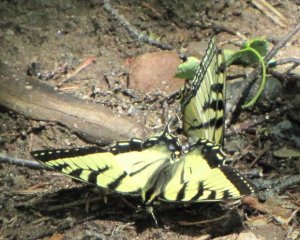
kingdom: Animalia
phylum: Arthropoda
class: Insecta
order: Lepidoptera
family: Papilionidae
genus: Pterourus
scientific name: Pterourus canadensis
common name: Canadian Tiger Swallowtail
